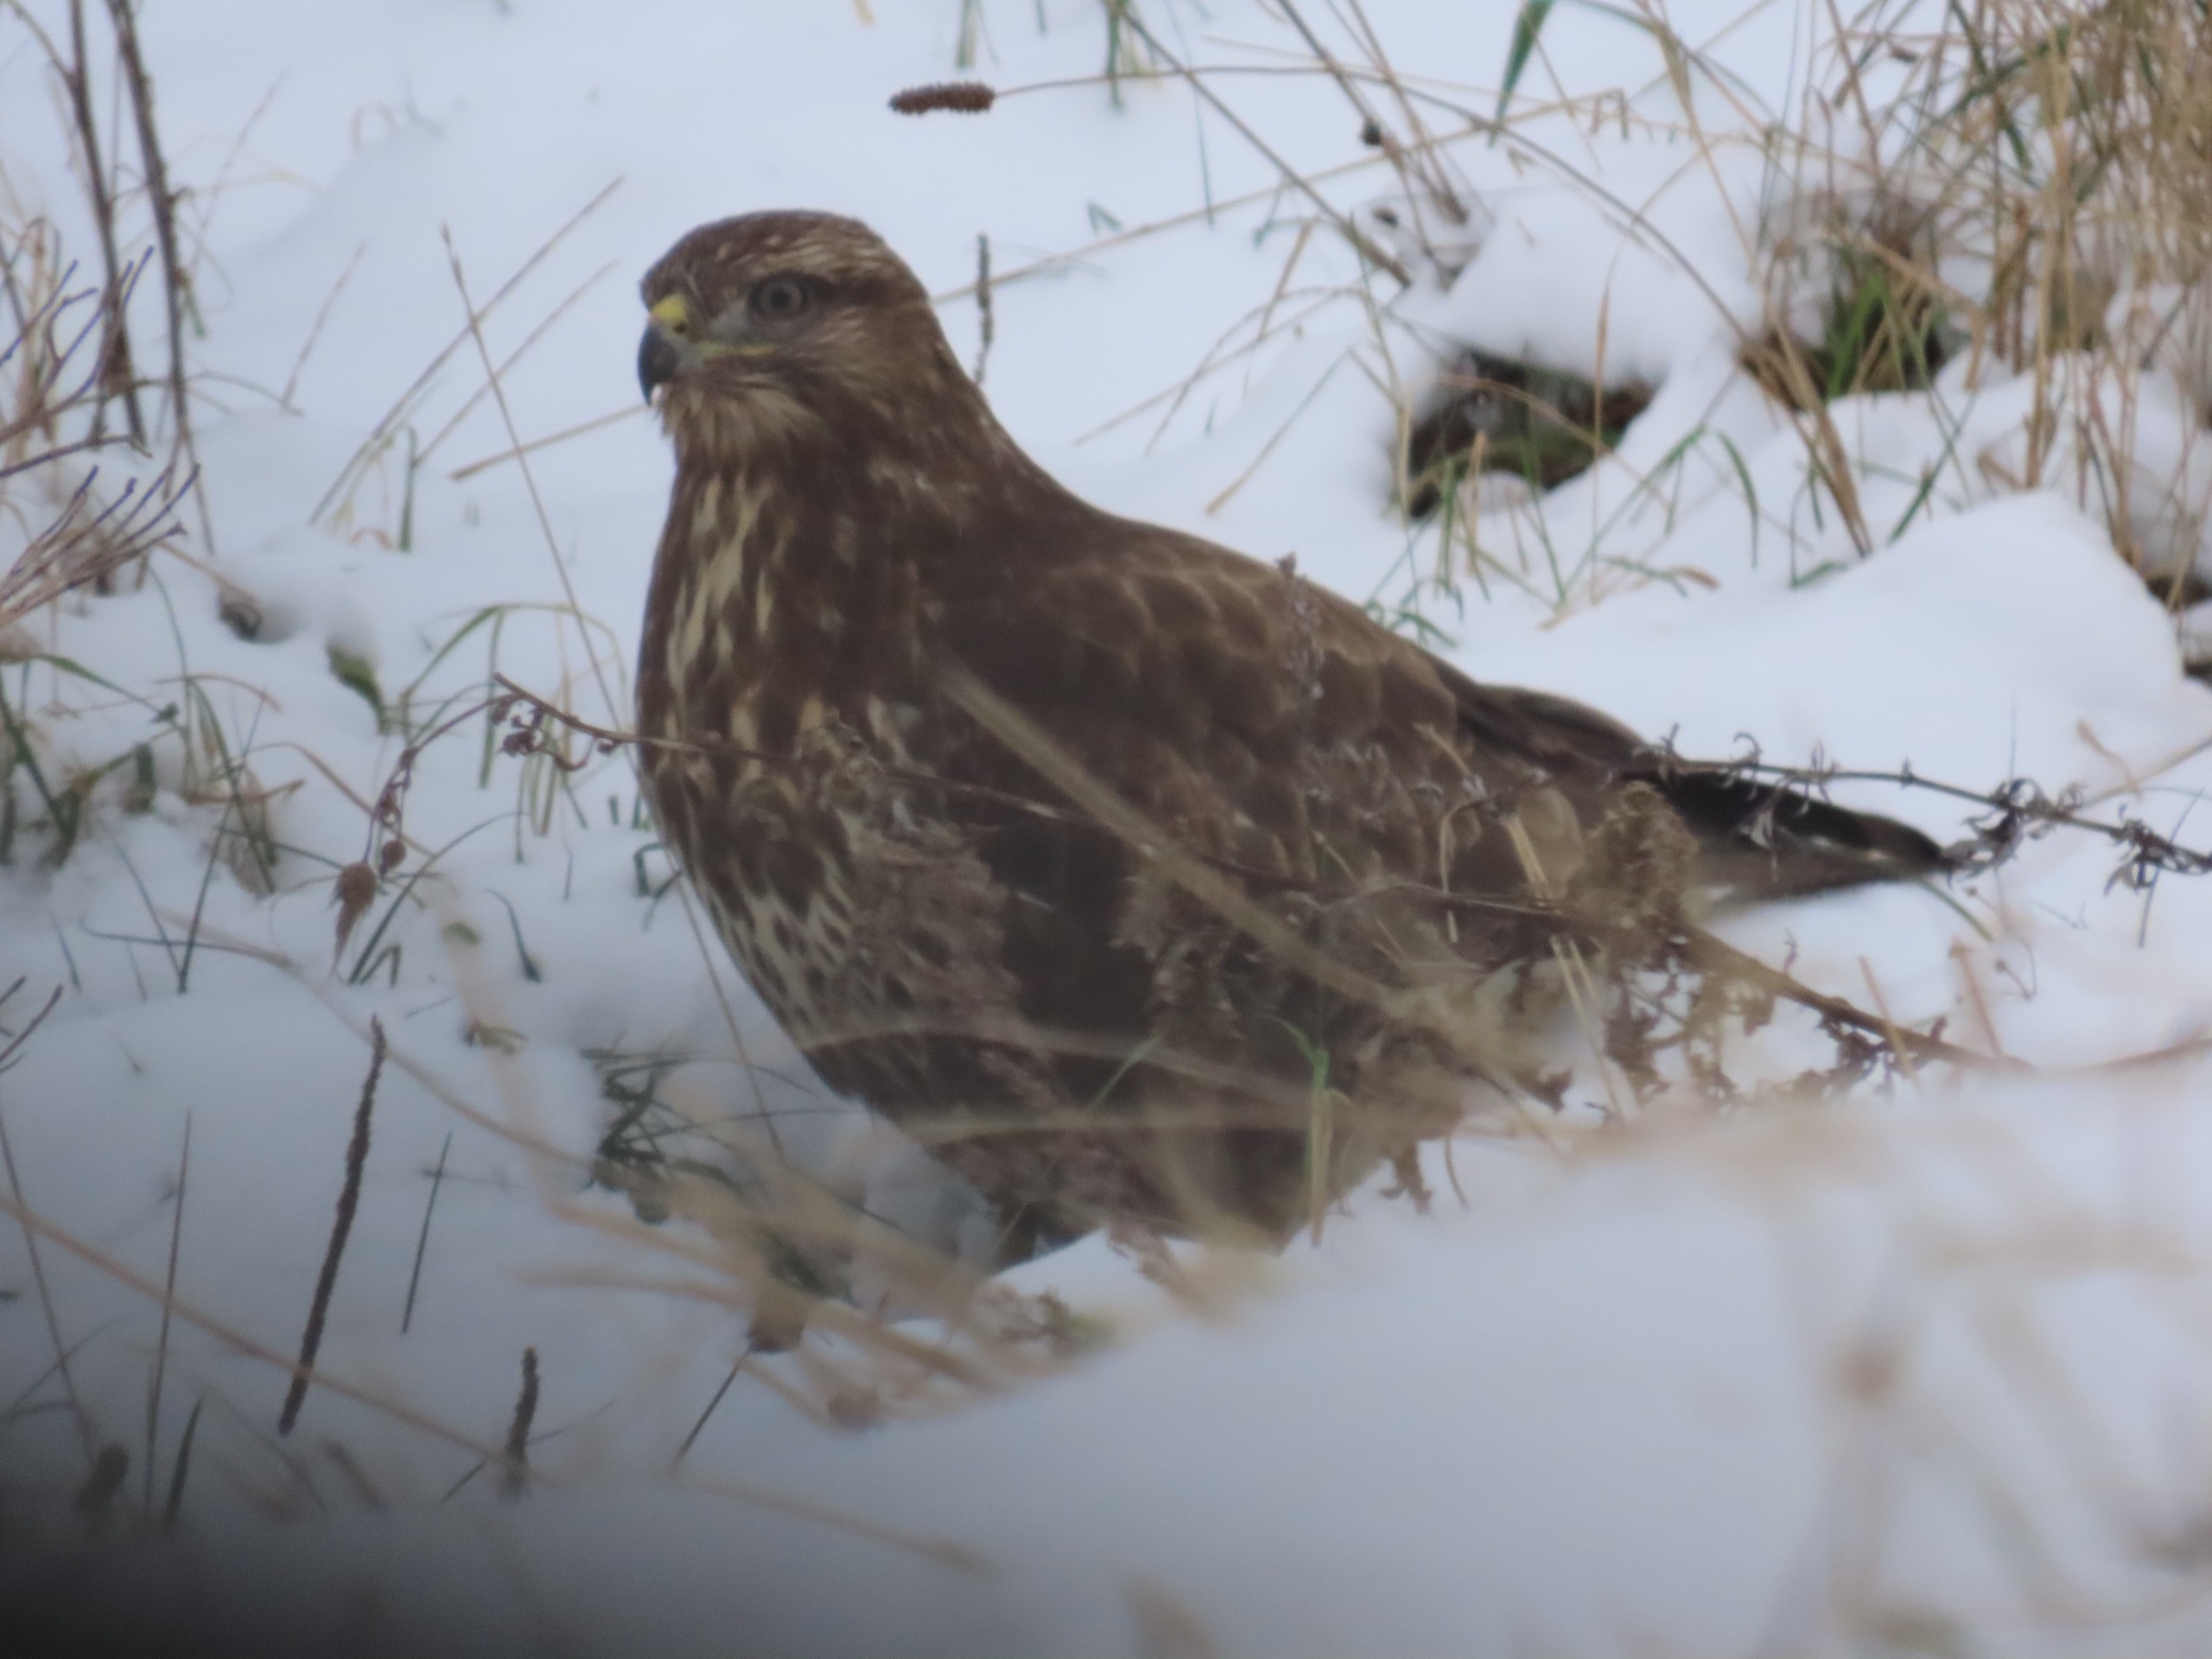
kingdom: Animalia
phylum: Chordata
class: Aves
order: Accipitriformes
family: Accipitridae
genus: Buteo
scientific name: Buteo buteo
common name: Musvåge
